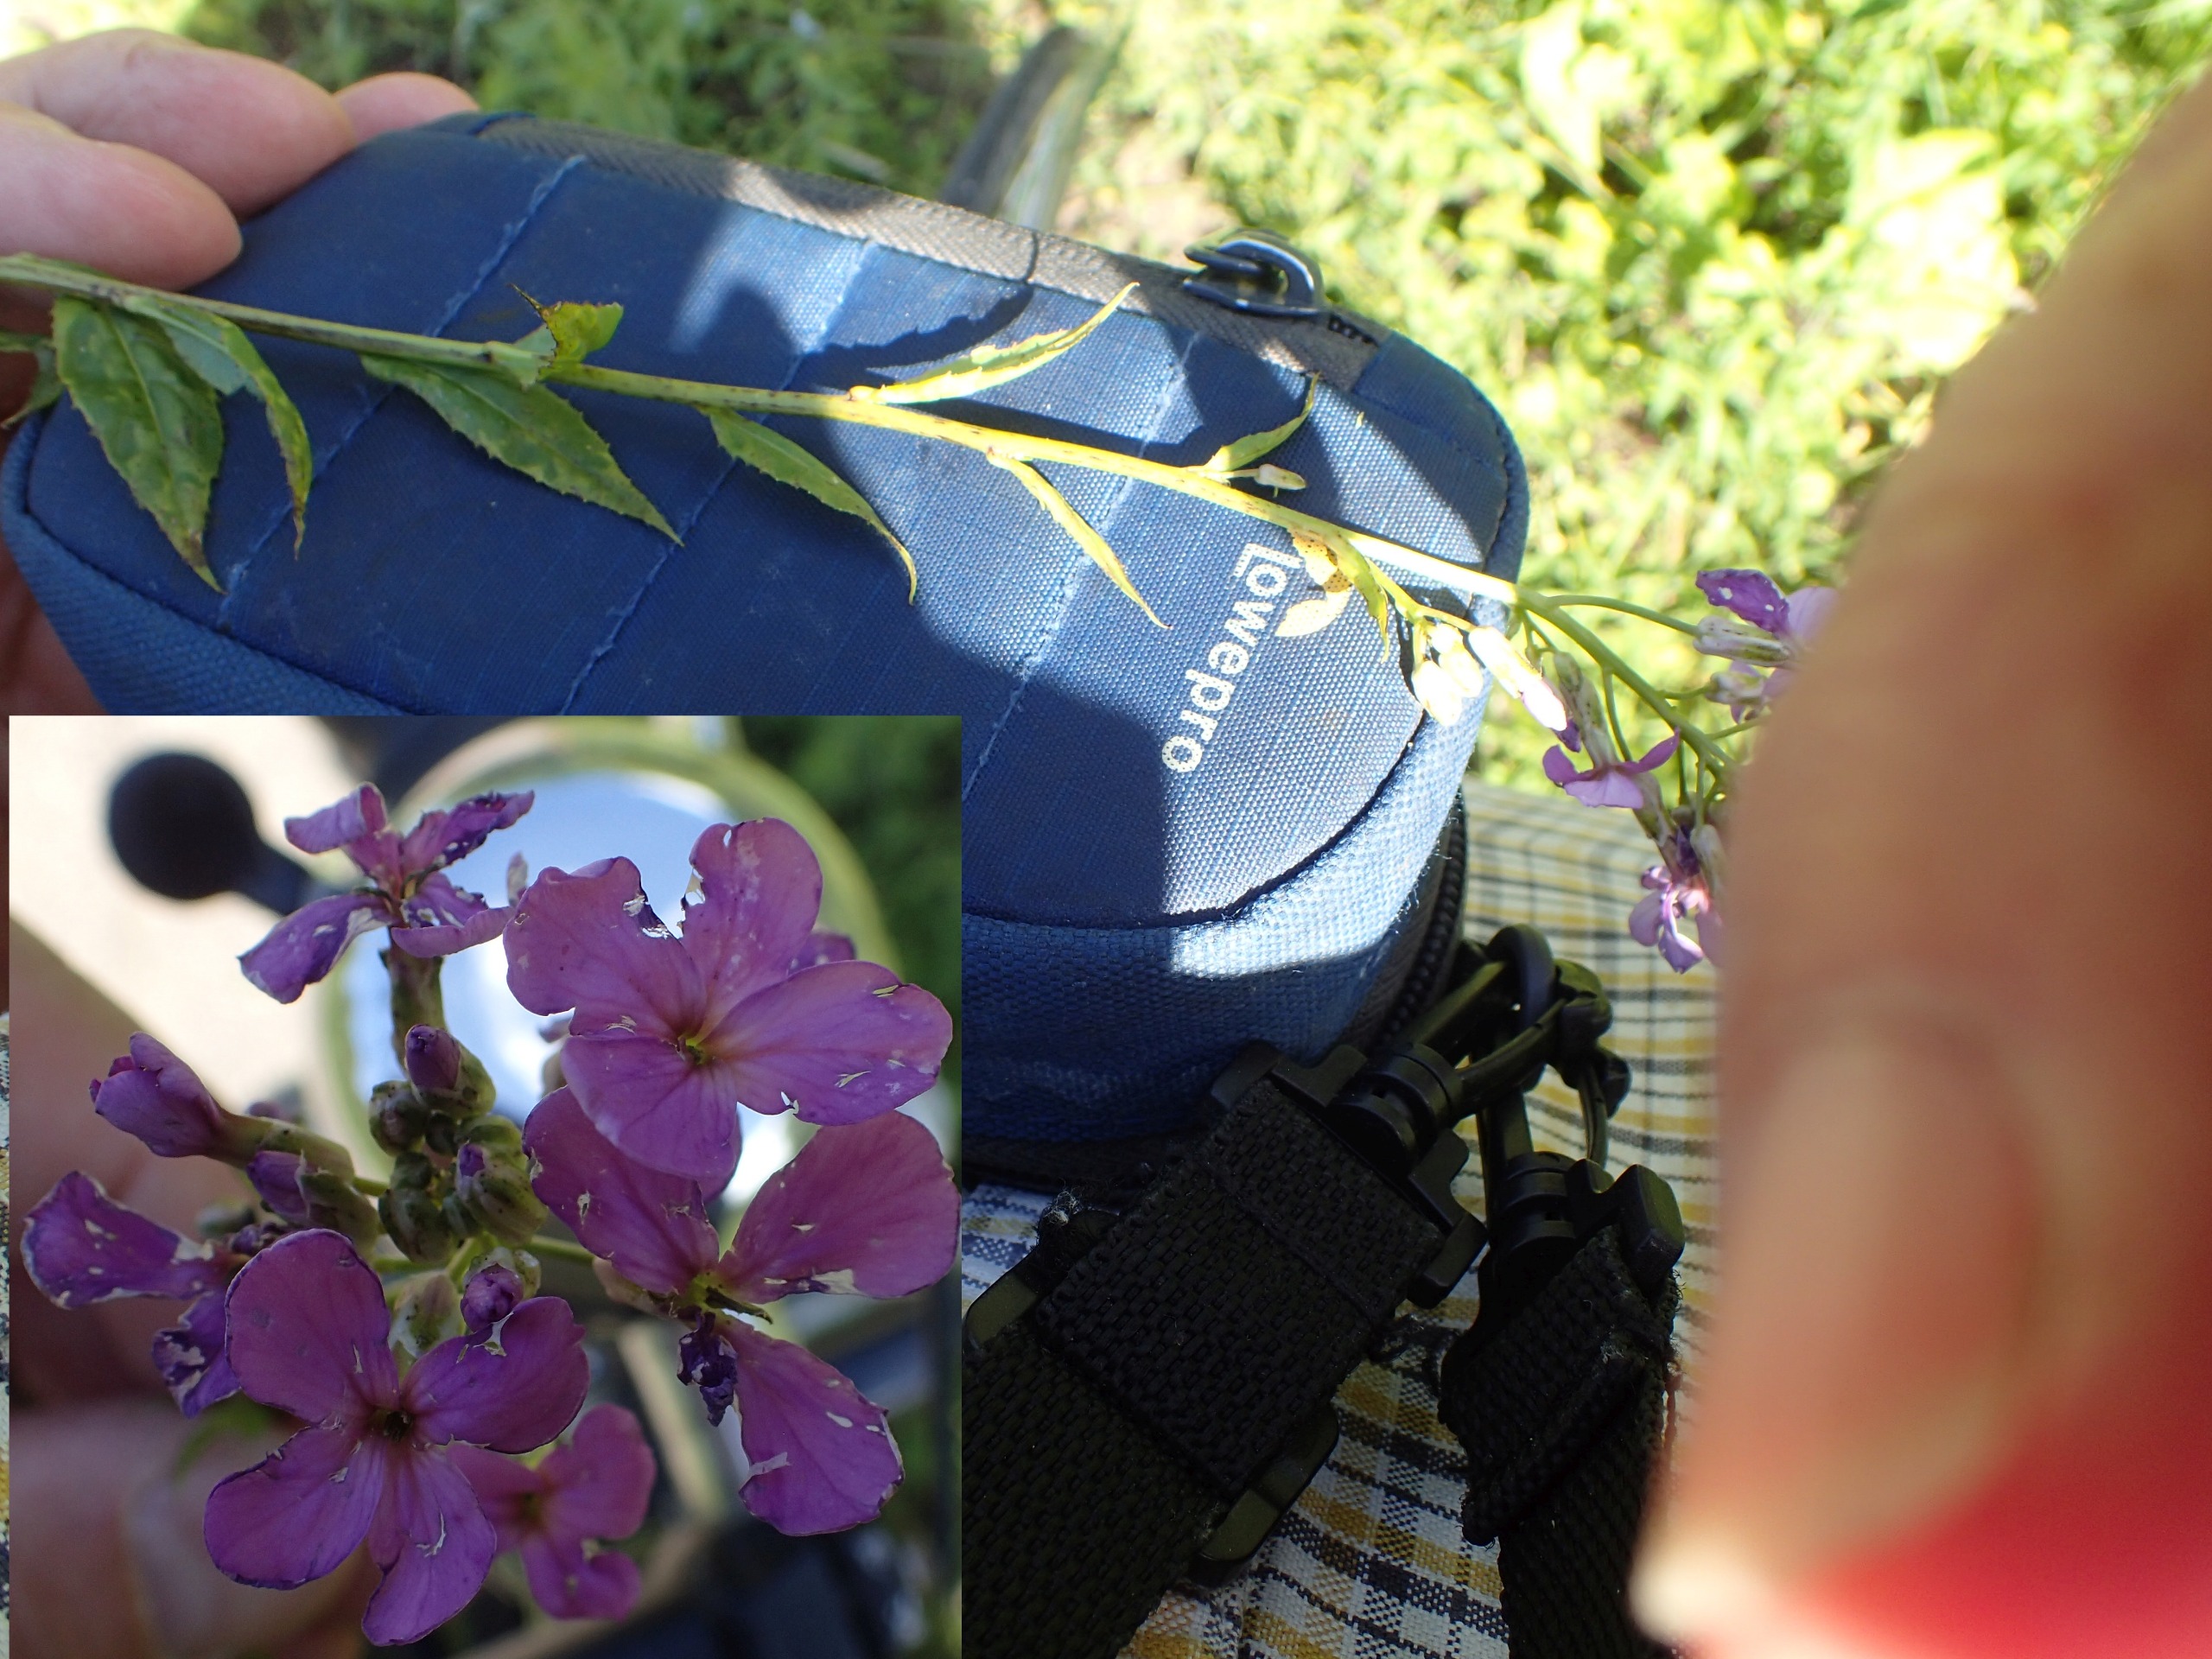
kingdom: Plantae
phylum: Tracheophyta
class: Magnoliopsida
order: Brassicales
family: Brassicaceae
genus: Hesperis
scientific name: Hesperis matronalis
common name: Aftenstjerne
